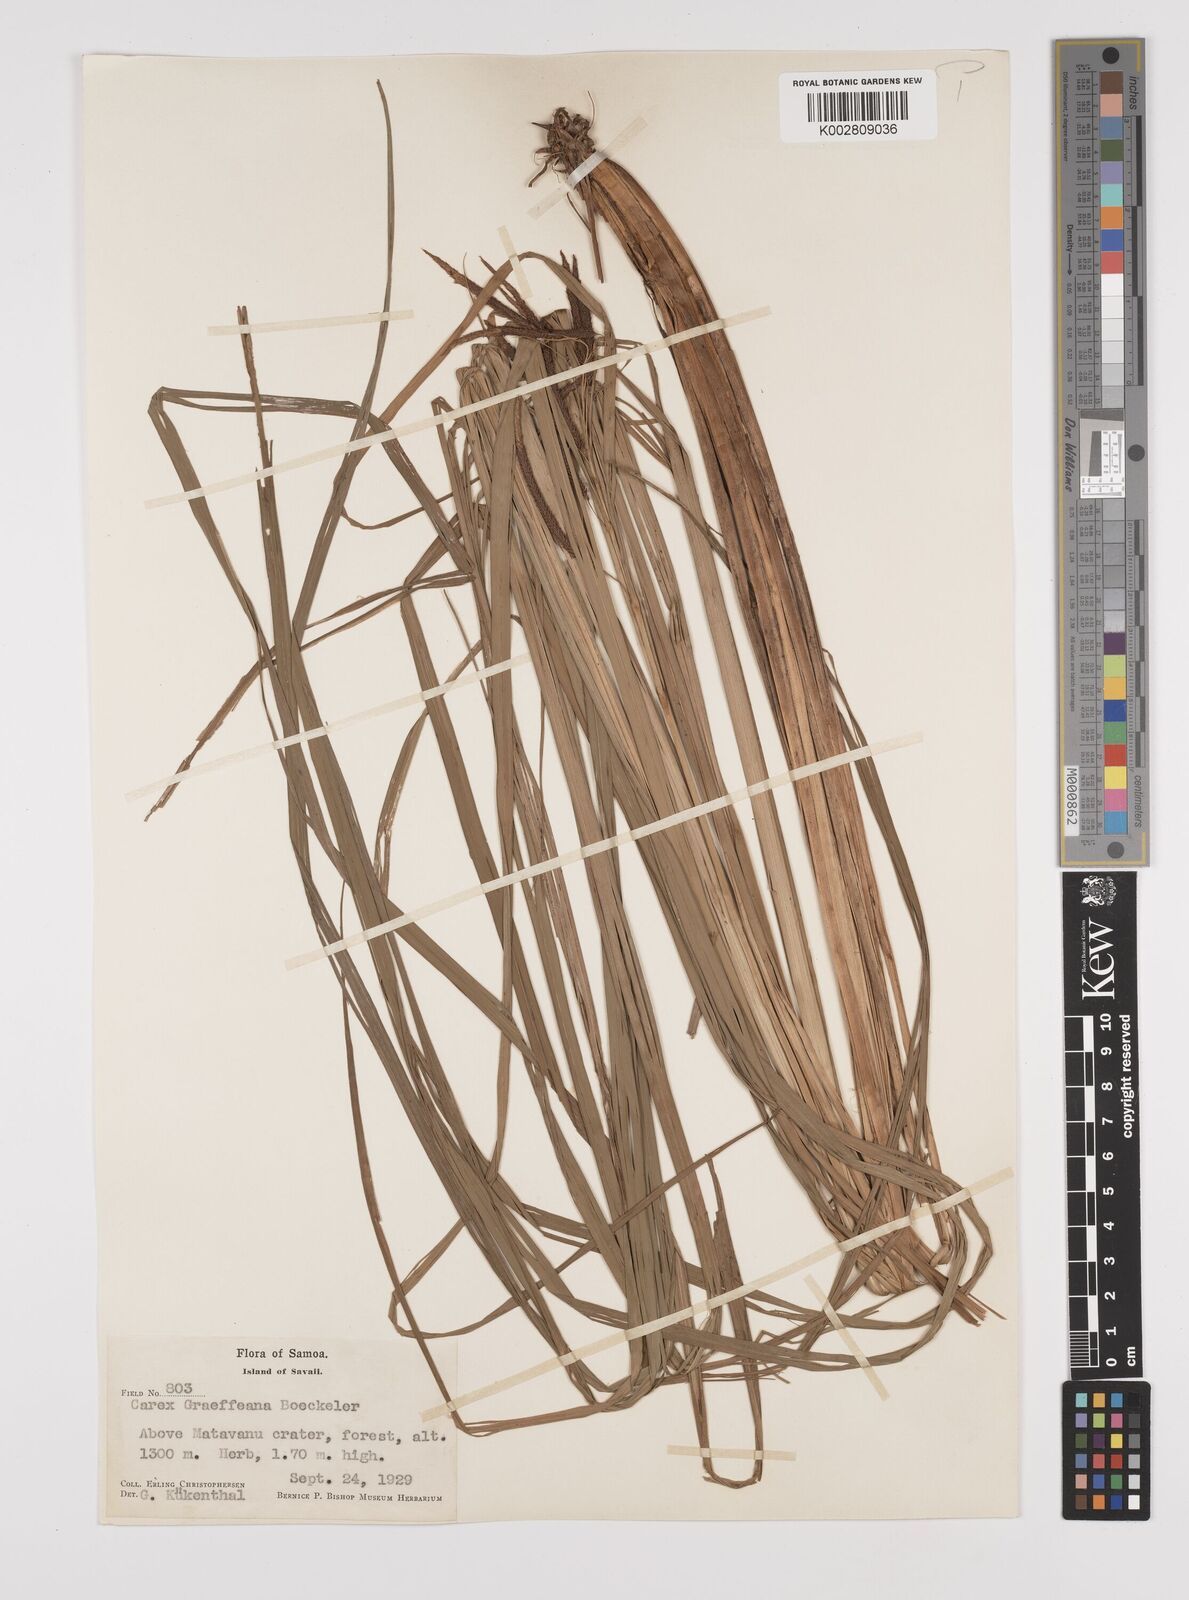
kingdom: Plantae
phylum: Tracheophyta
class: Liliopsida
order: Poales
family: Cyperaceae
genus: Carex
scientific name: Carex graeffeana
